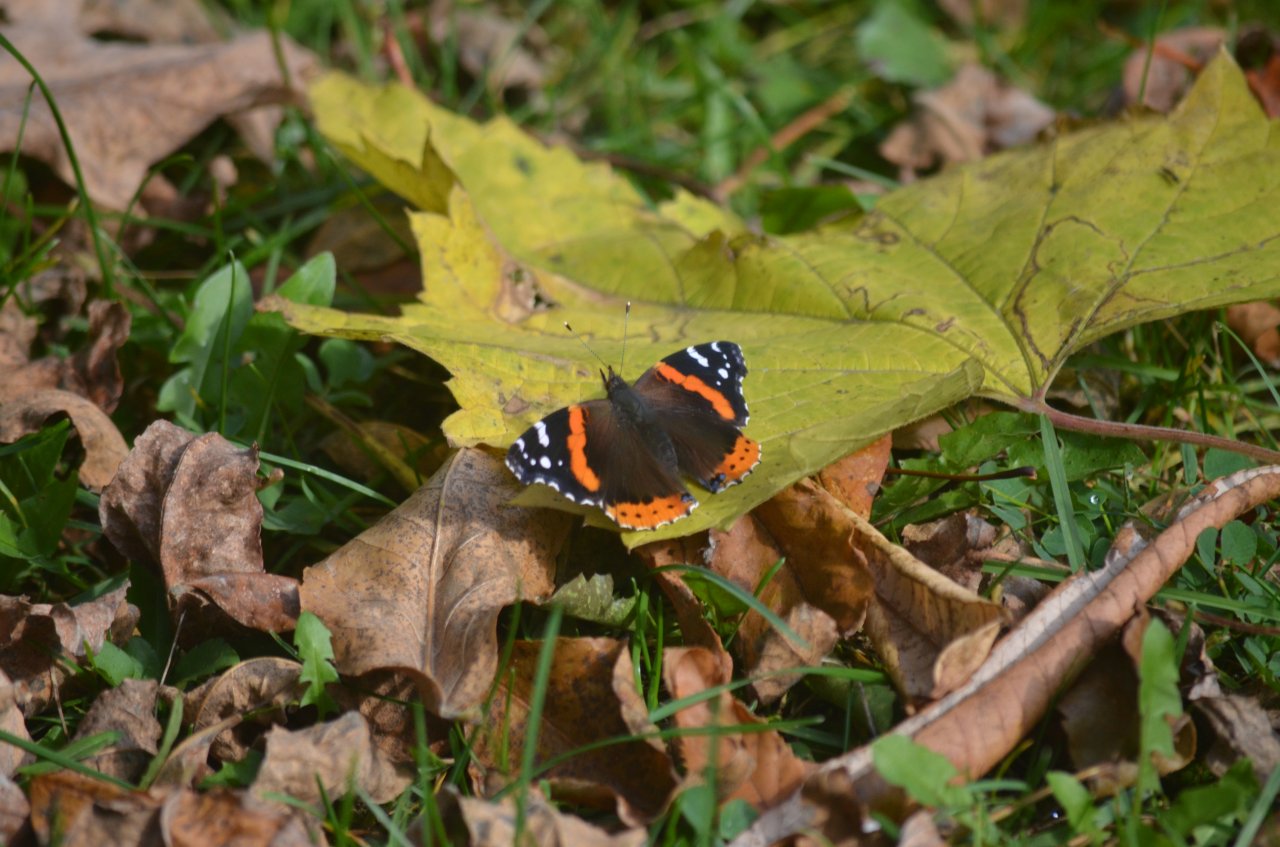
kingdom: Animalia
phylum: Arthropoda
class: Insecta
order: Lepidoptera
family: Nymphalidae
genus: Vanessa
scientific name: Vanessa atalanta
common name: Red Admiral
